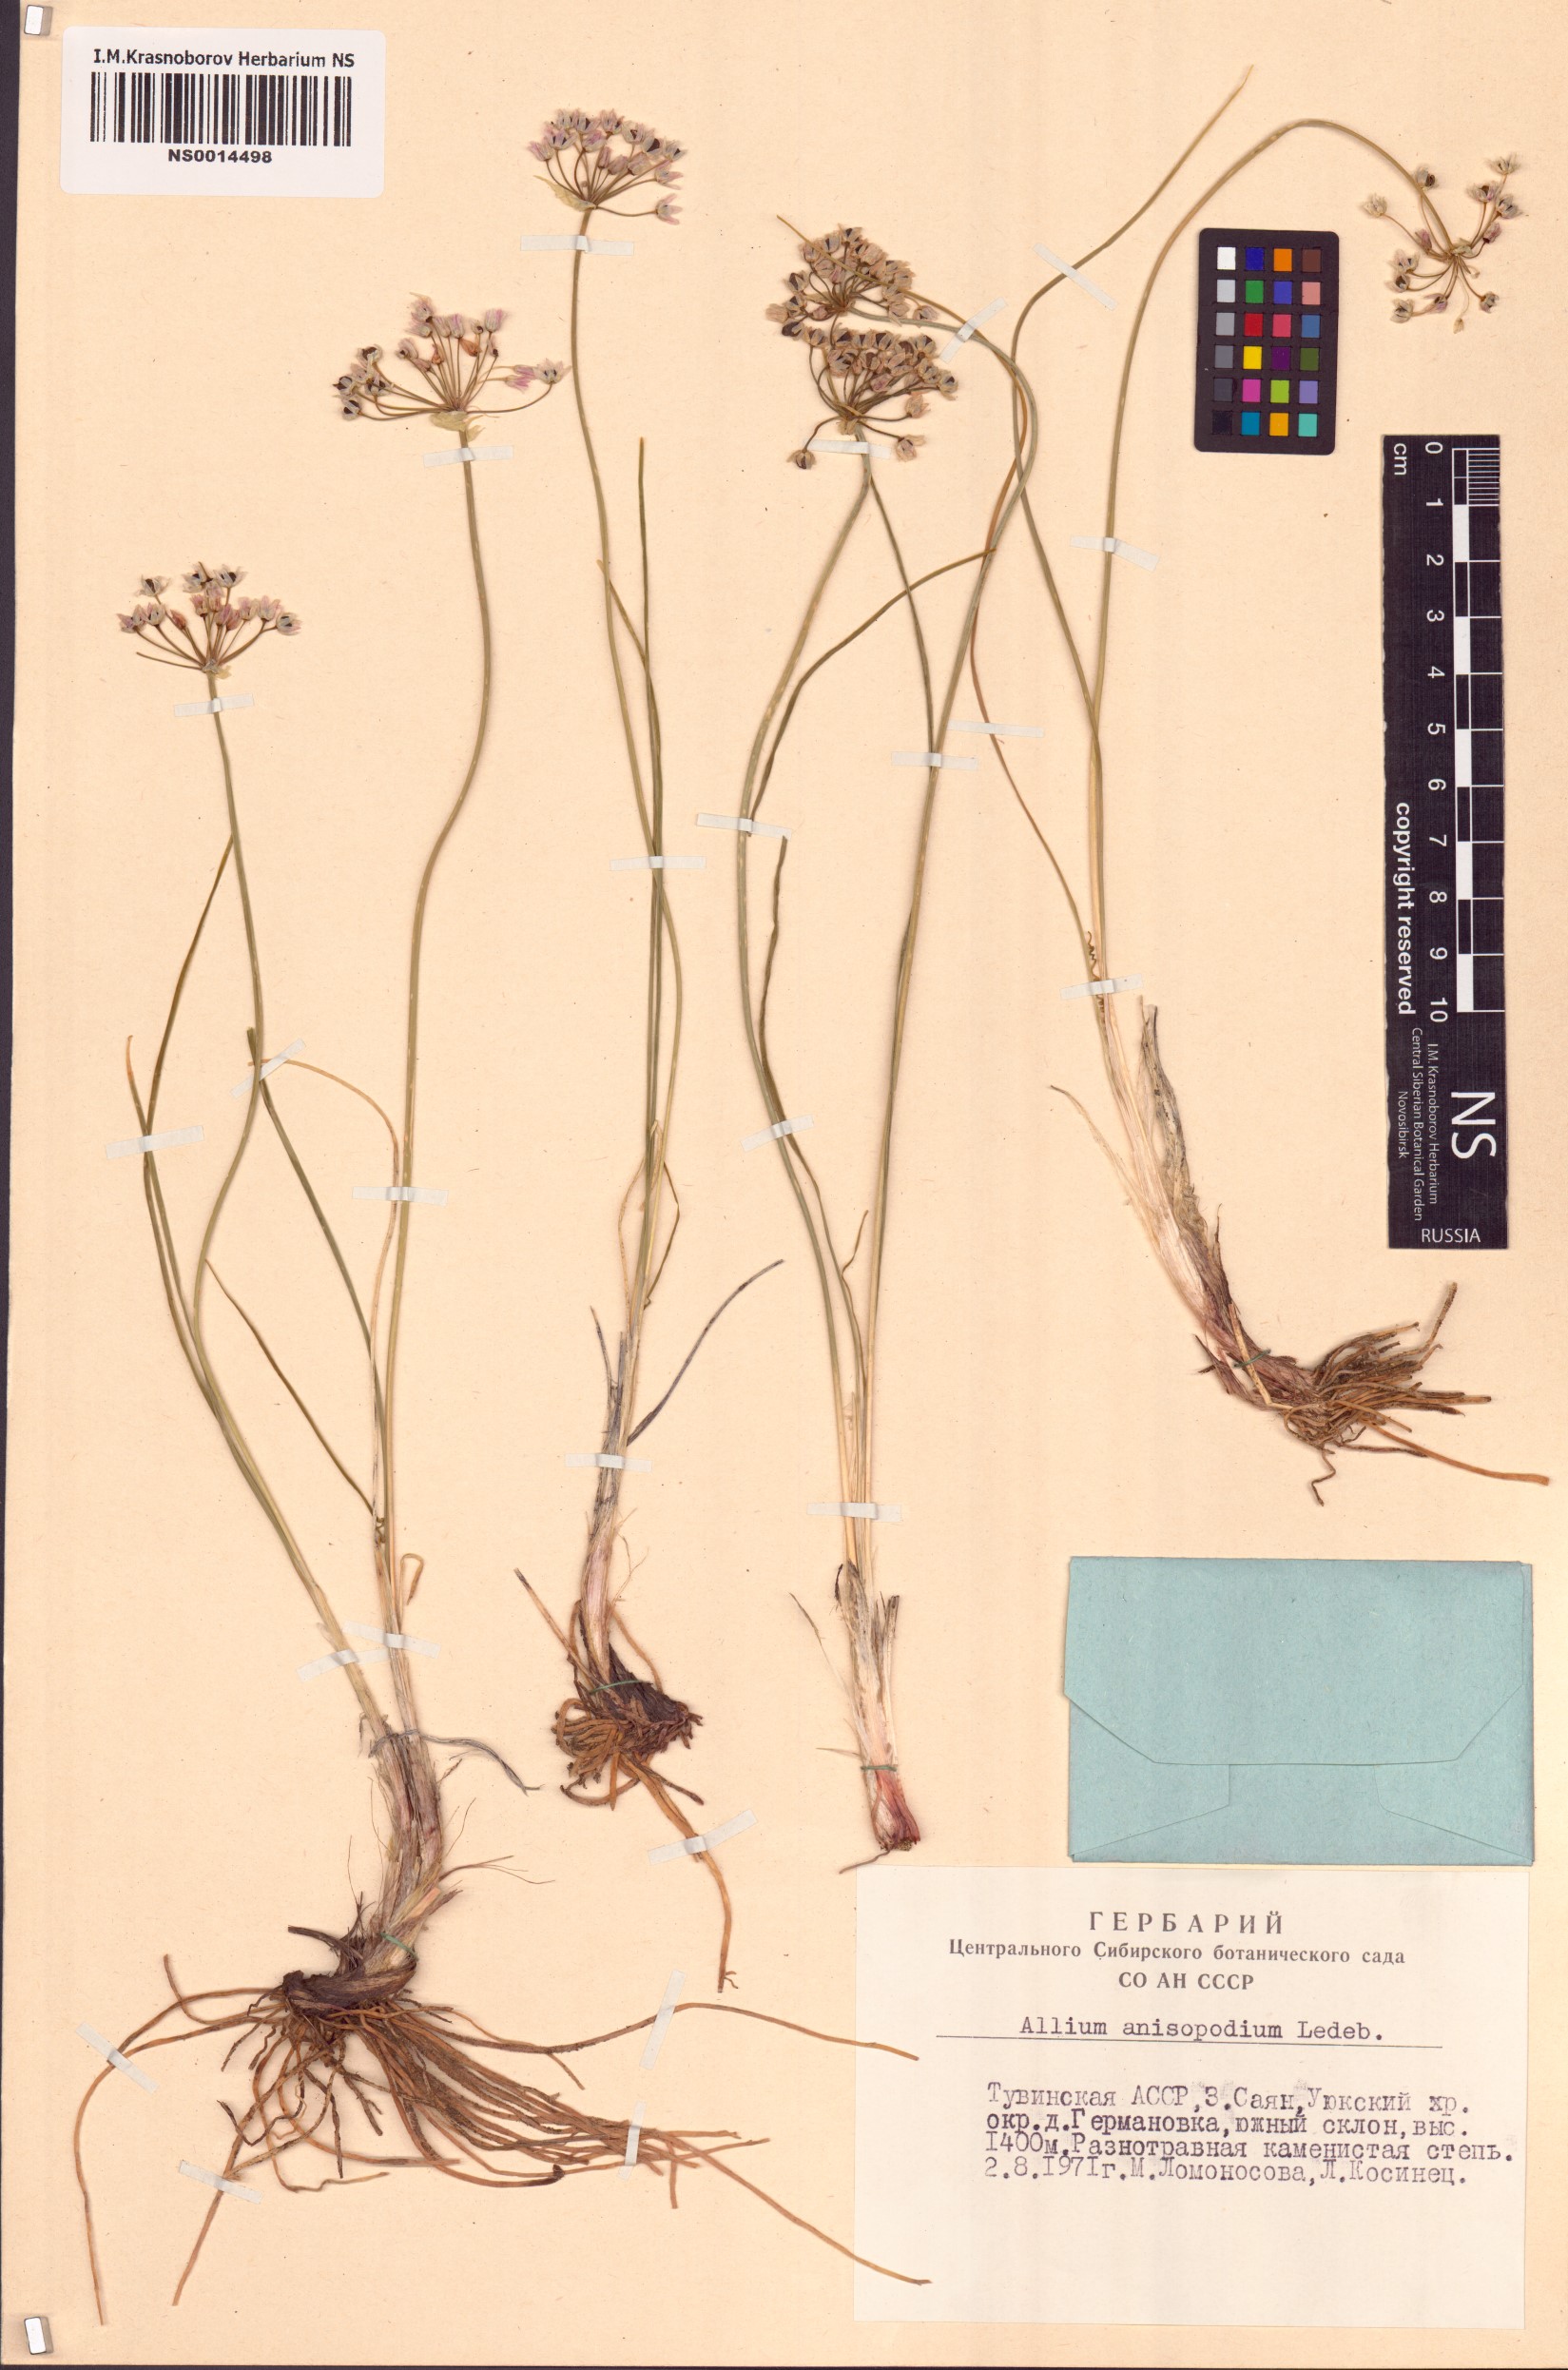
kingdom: Plantae
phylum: Tracheophyta
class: Liliopsida
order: Asparagales
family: Amaryllidaceae
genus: Allium
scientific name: Allium anisopodium
